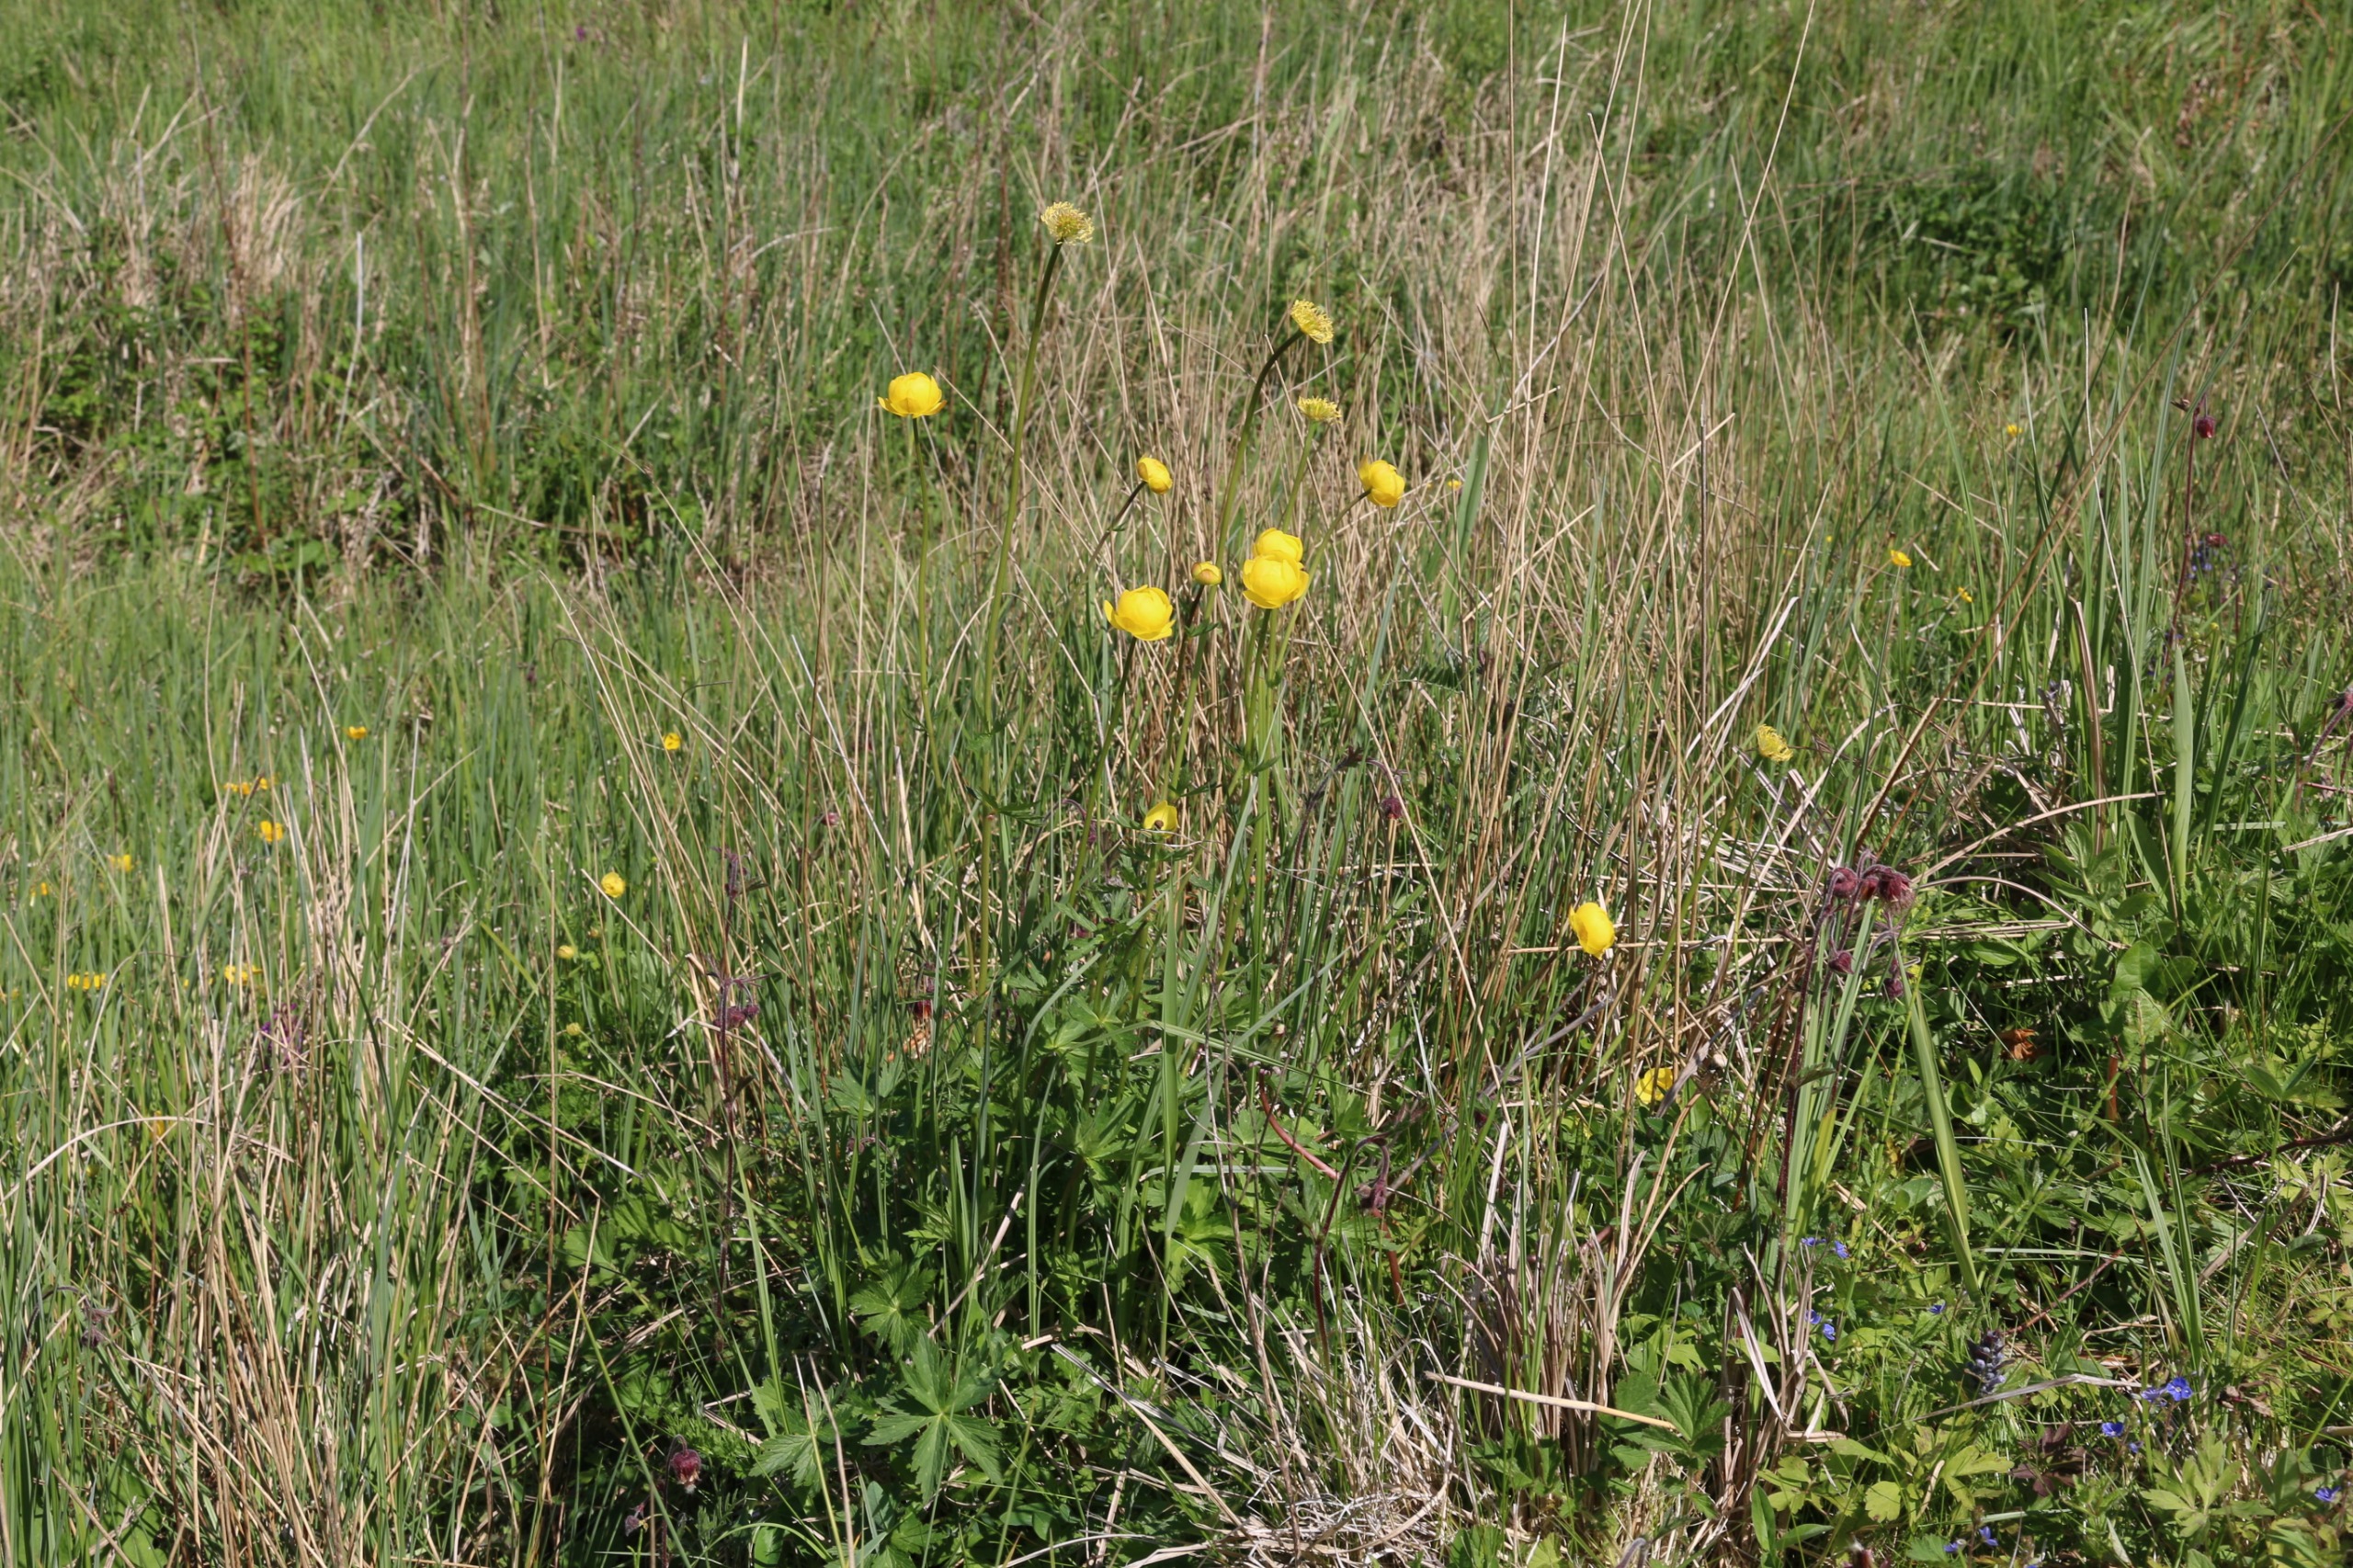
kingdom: Plantae
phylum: Tracheophyta
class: Magnoliopsida
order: Ranunculales
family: Ranunculaceae
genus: Trollius
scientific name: Trollius europaeus
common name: Engblomme
